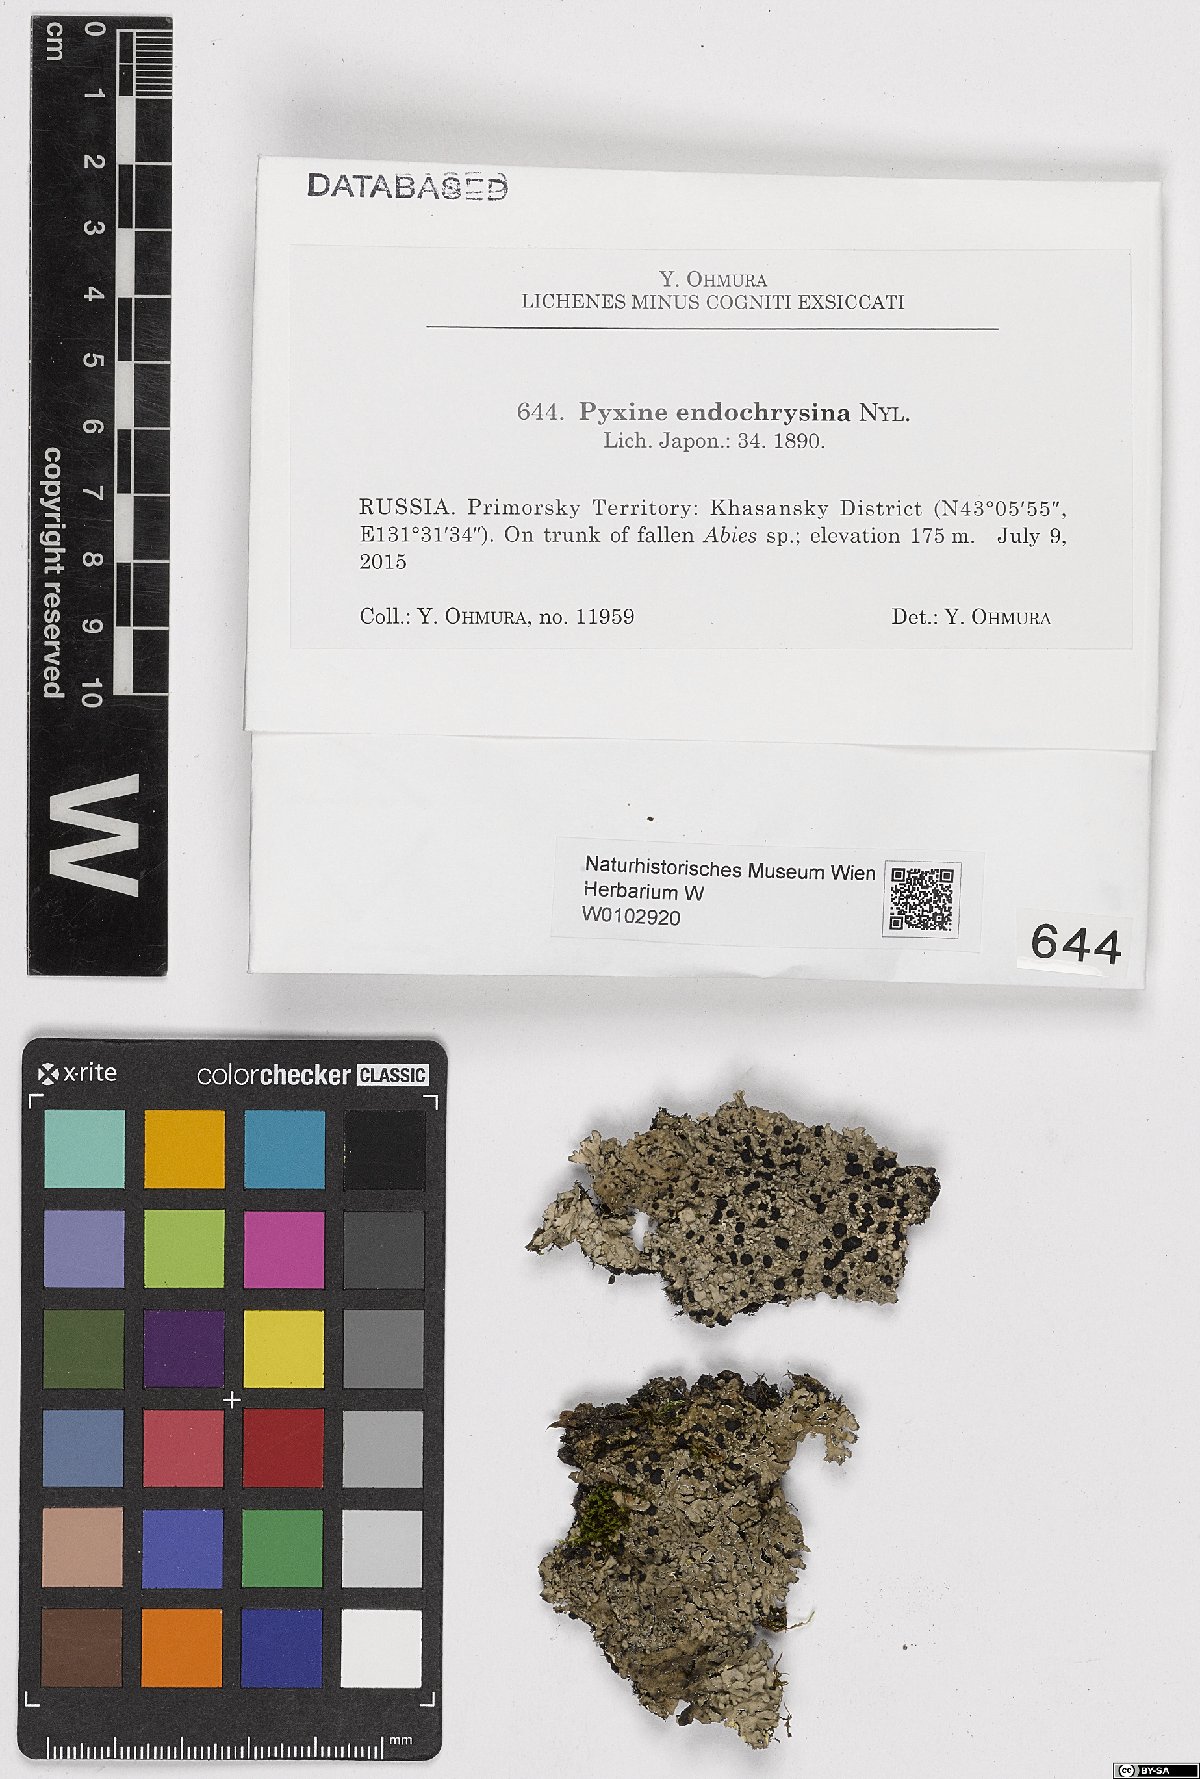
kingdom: Fungi
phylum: Ascomycota
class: Lecanoromycetes
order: Caliciales
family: Caliciaceae
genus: Pyxine
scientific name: Pyxine endochrysina
